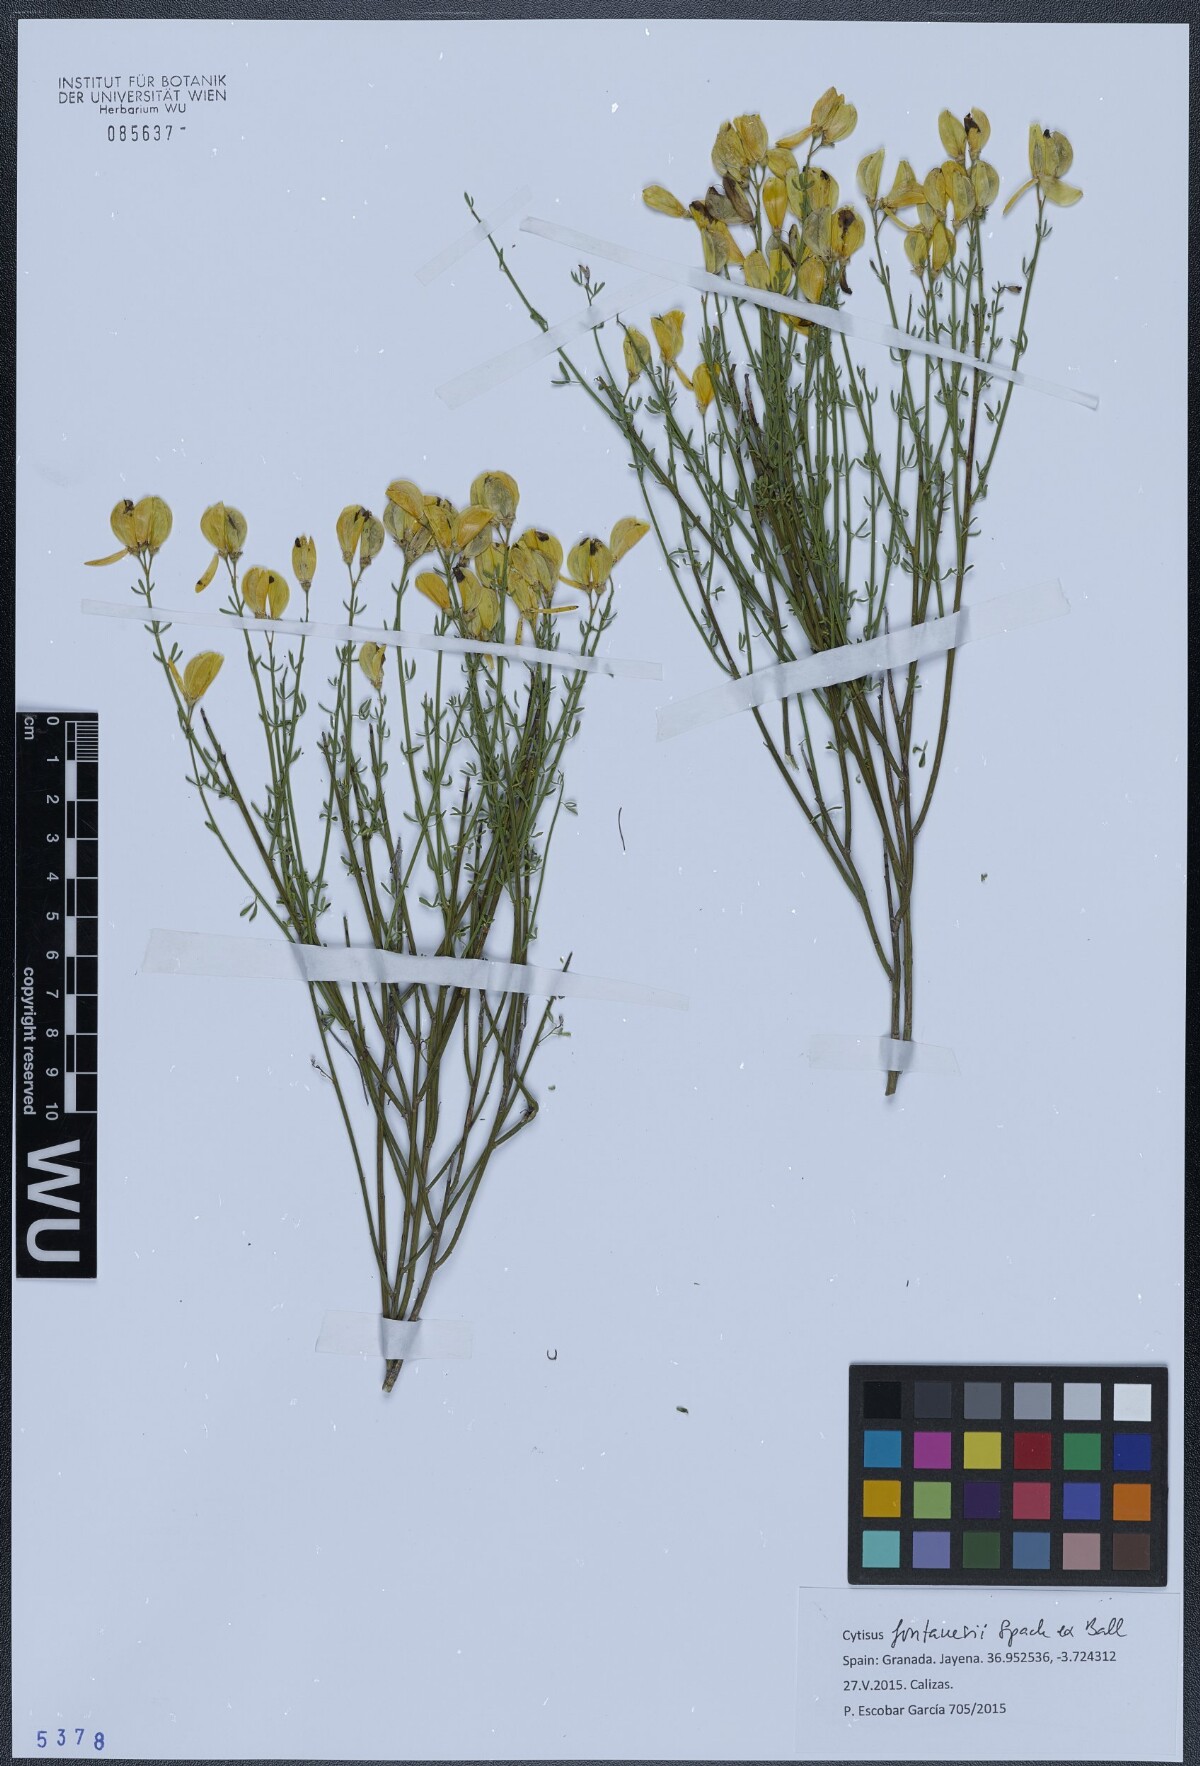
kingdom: Plantae
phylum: Tracheophyta
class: Magnoliopsida
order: Fabales
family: Fabaceae
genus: Cytisus
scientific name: Cytisus fontanesii
